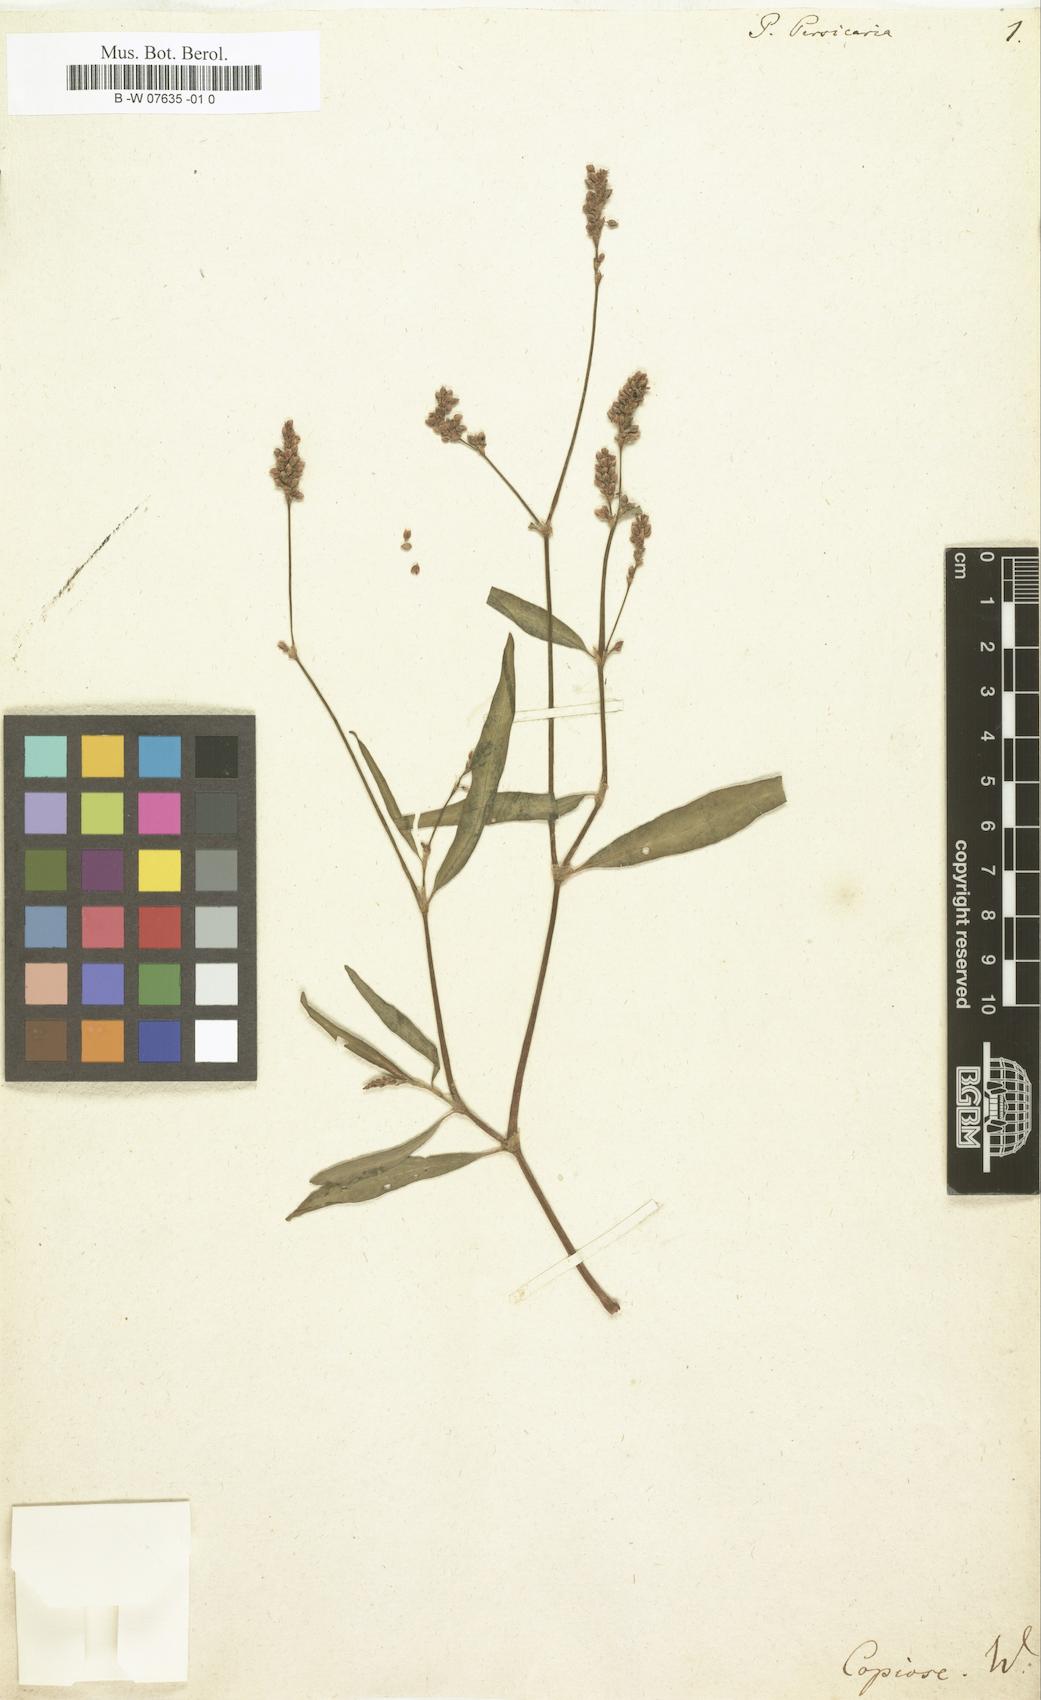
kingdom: Plantae
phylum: Tracheophyta
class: Magnoliopsida
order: Caryophyllales
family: Polygonaceae
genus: Polygonum
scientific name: Polygonum persicaria
